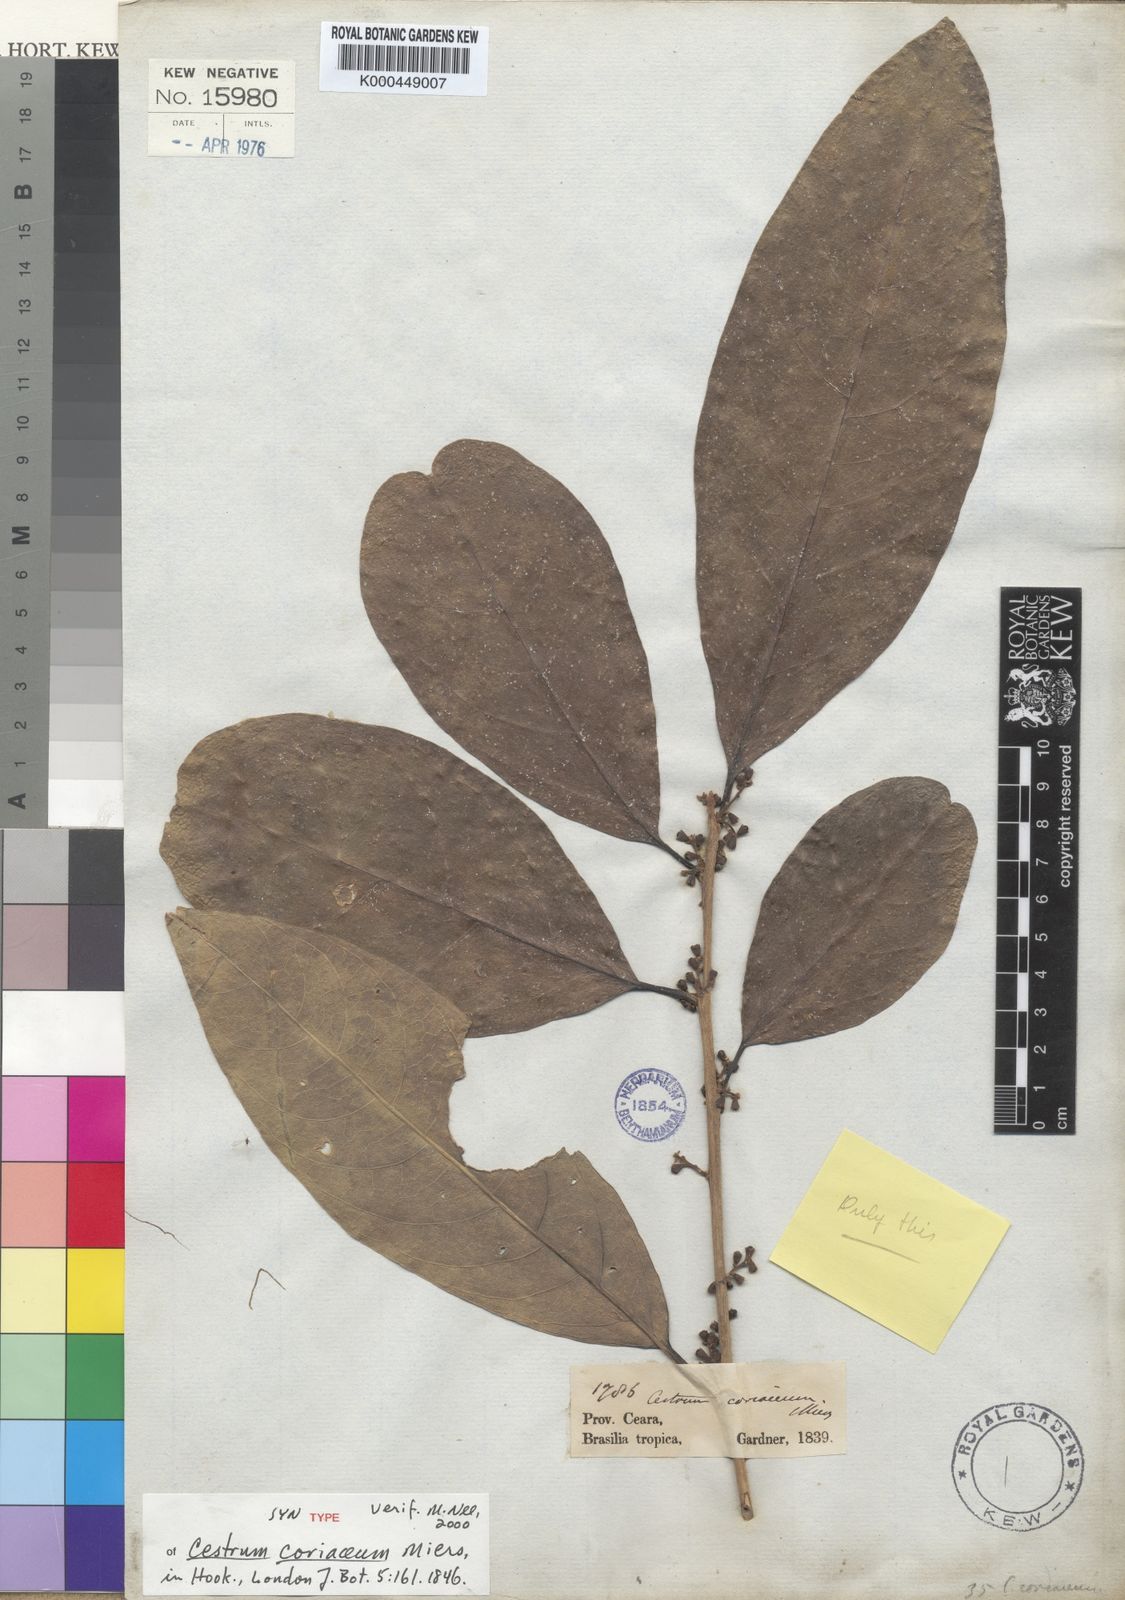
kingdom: Plantae
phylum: Tracheophyta
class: Magnoliopsida
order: Solanales
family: Solanaceae
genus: Cestrum
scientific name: Cestrum coriaceum
